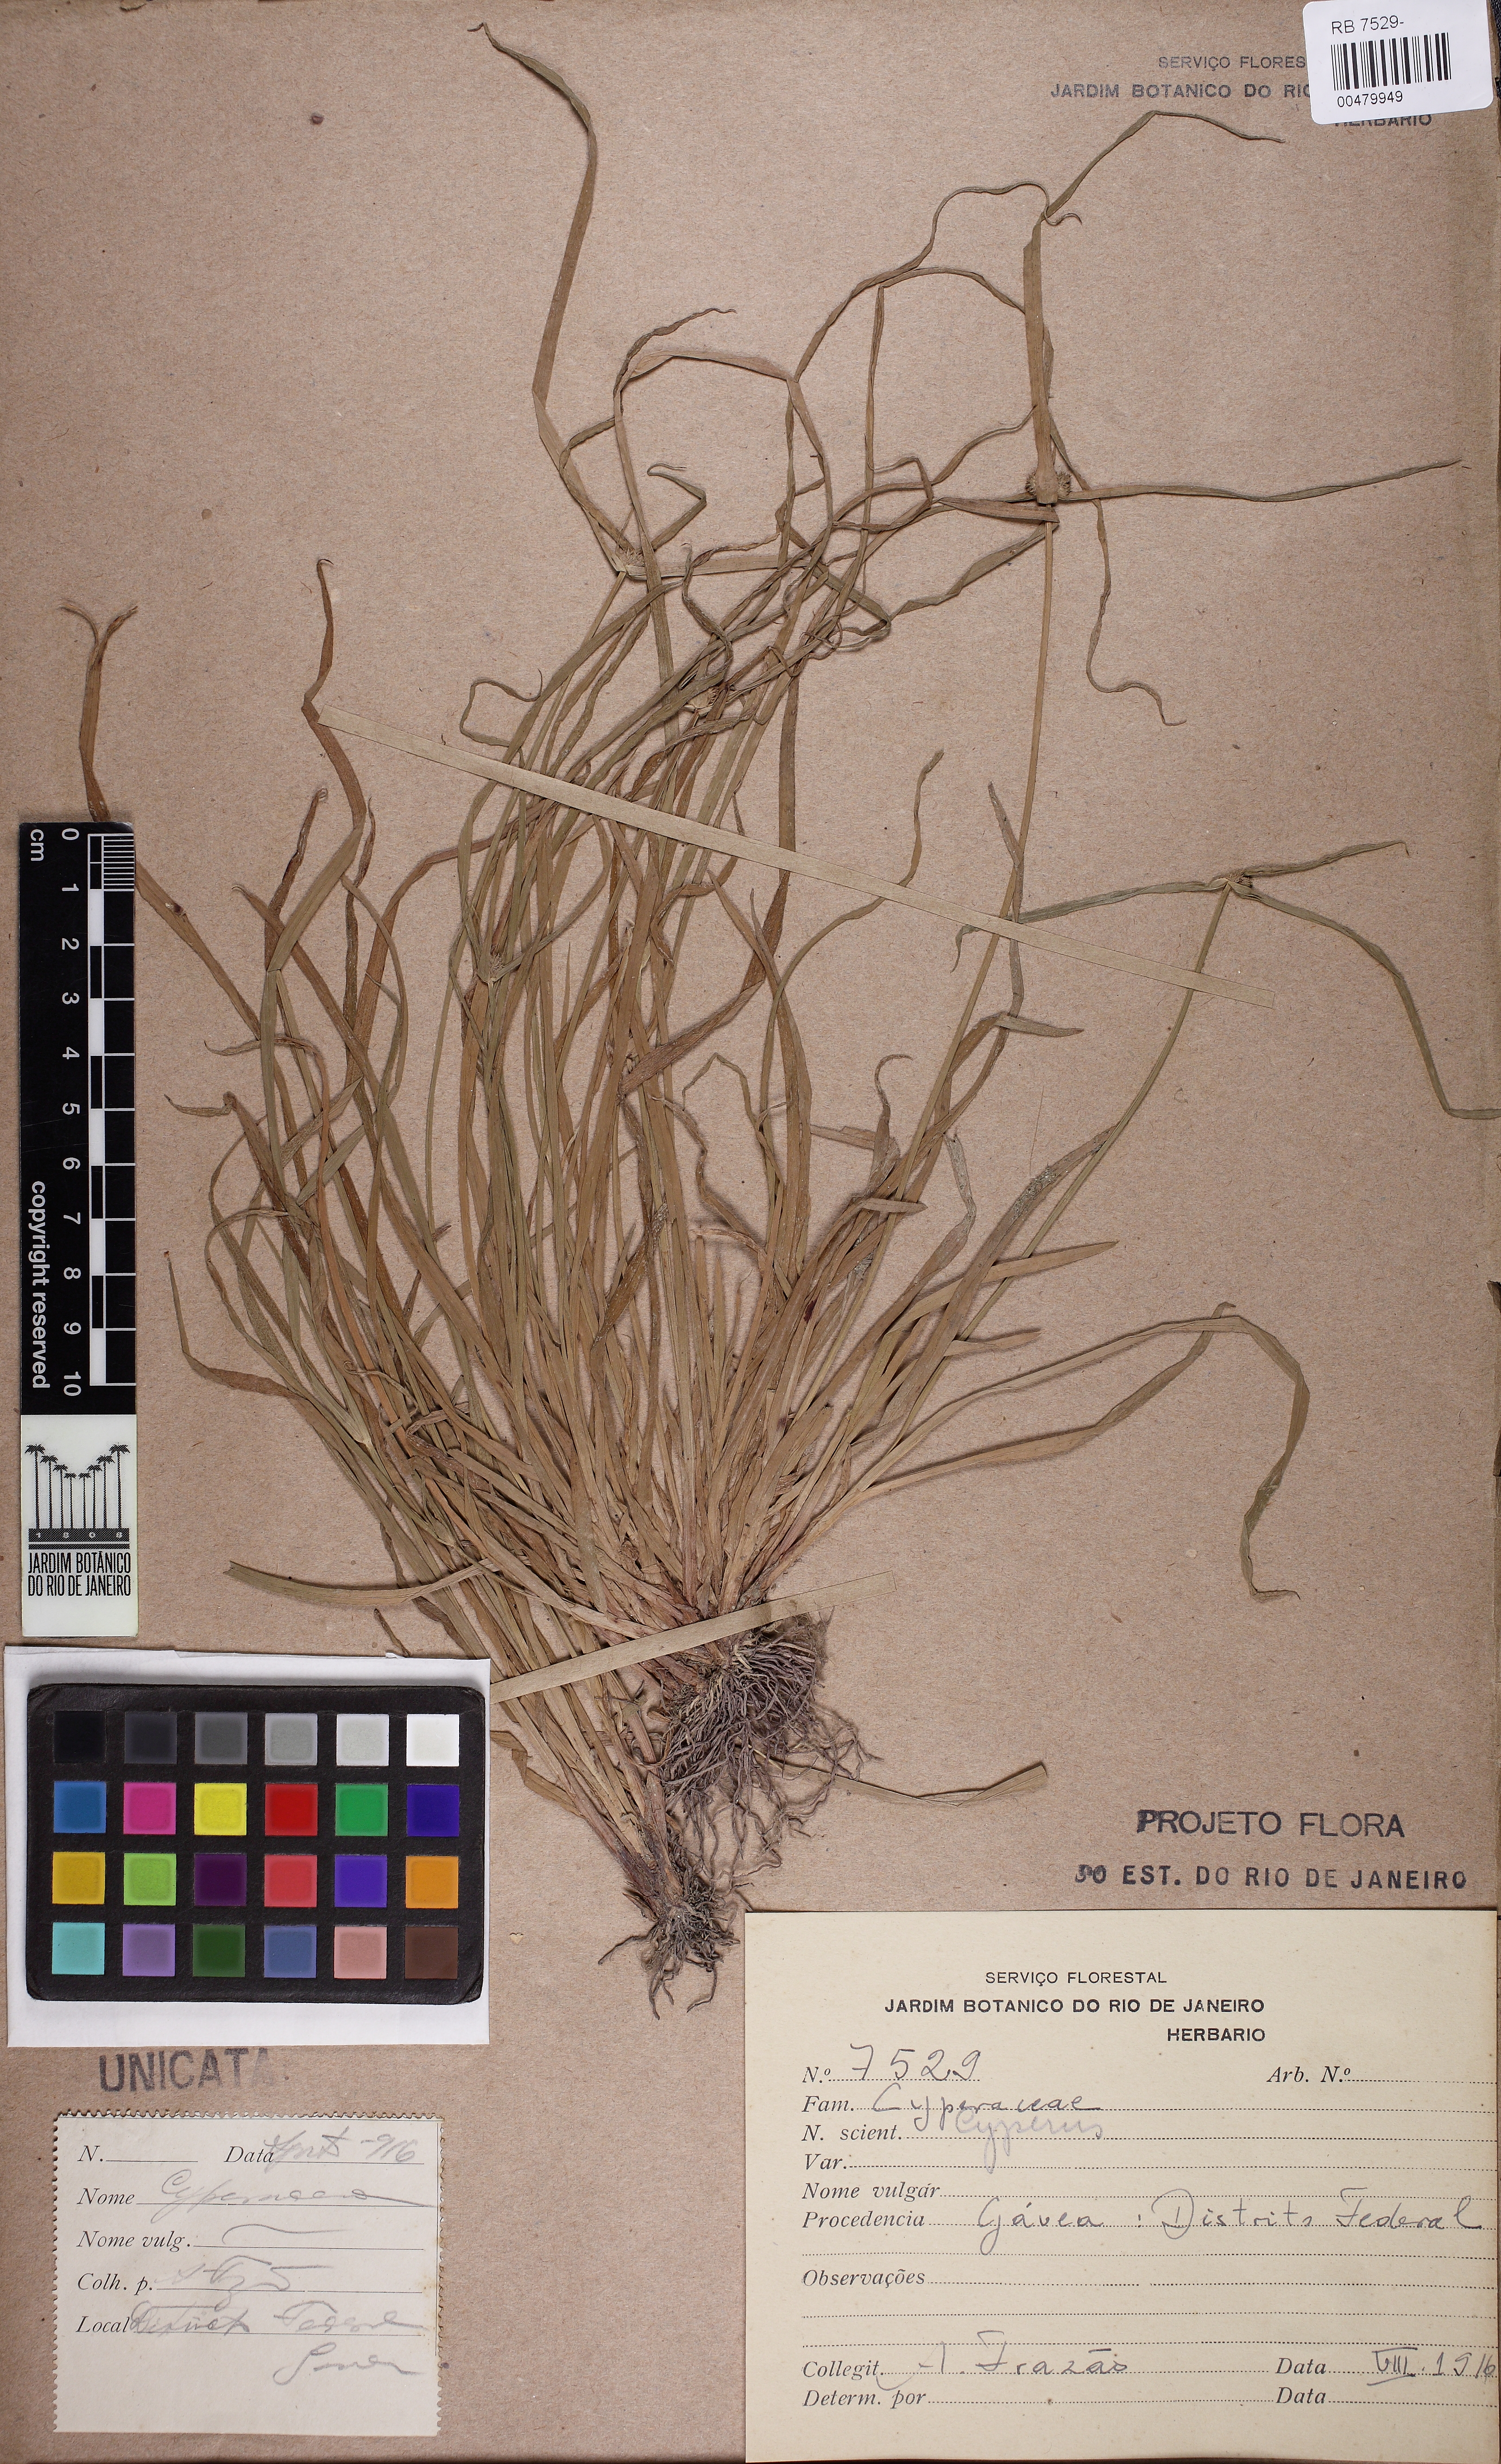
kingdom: Plantae
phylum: Tracheophyta
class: Liliopsida
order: Poales
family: Cyperaceae
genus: Cyperus
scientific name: Cyperus imbricatus
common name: Shingle flatsedge
